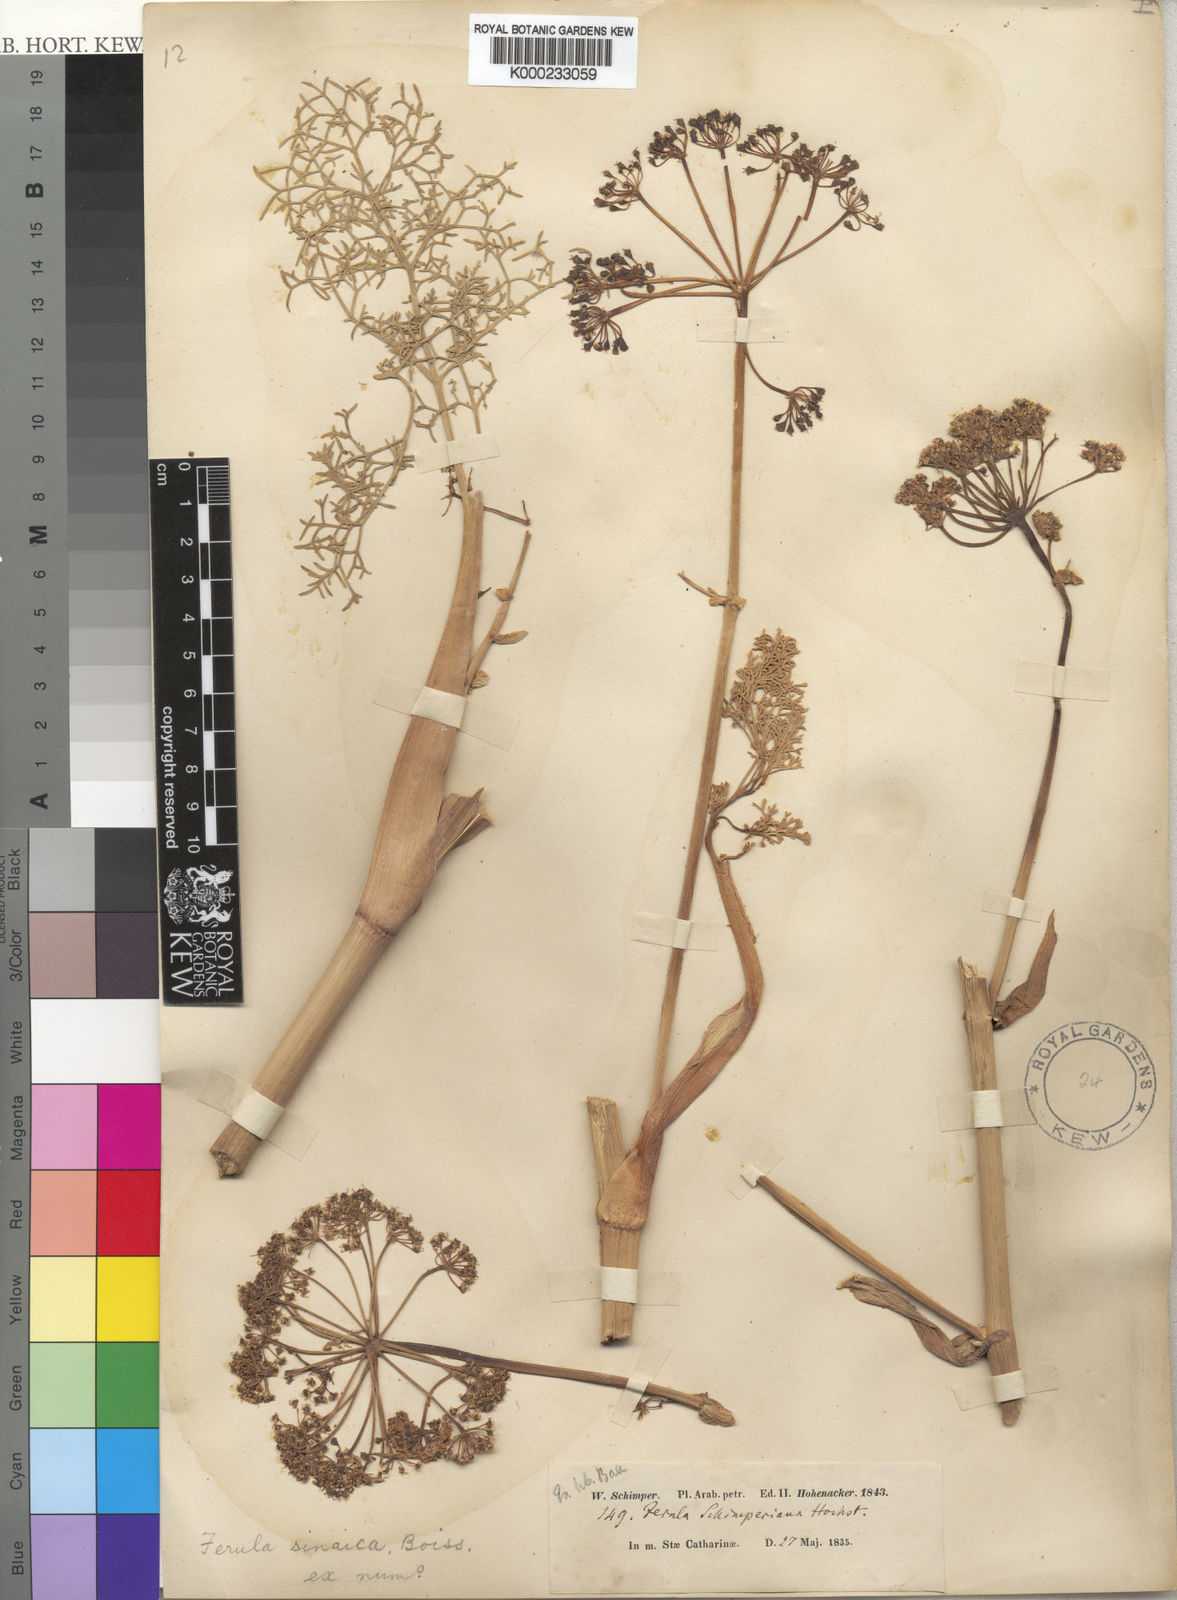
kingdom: Plantae
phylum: Tracheophyta
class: Magnoliopsida
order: Apiales
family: Apiaceae
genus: Ferula
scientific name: Ferula sinaica
